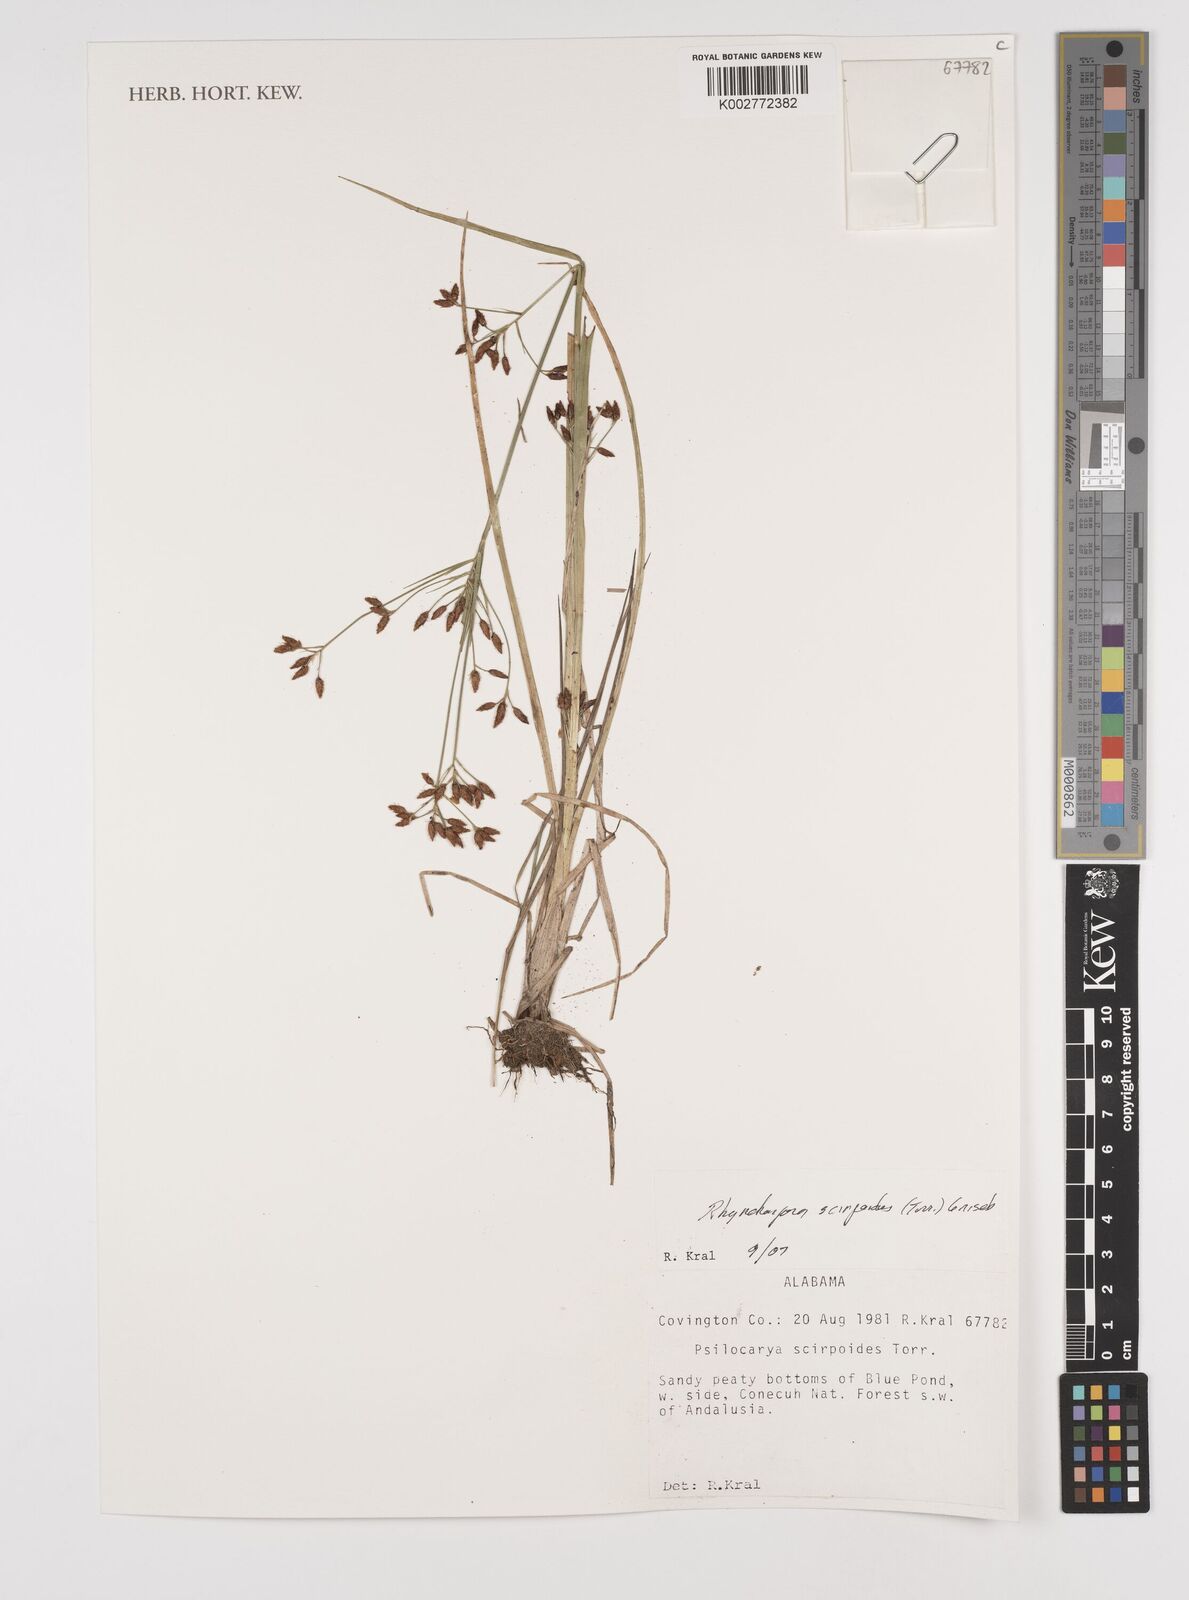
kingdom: Plantae
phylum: Tracheophyta
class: Liliopsida
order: Poales
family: Cyperaceae
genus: Rhynchospora
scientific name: Rhynchospora scirpoides
